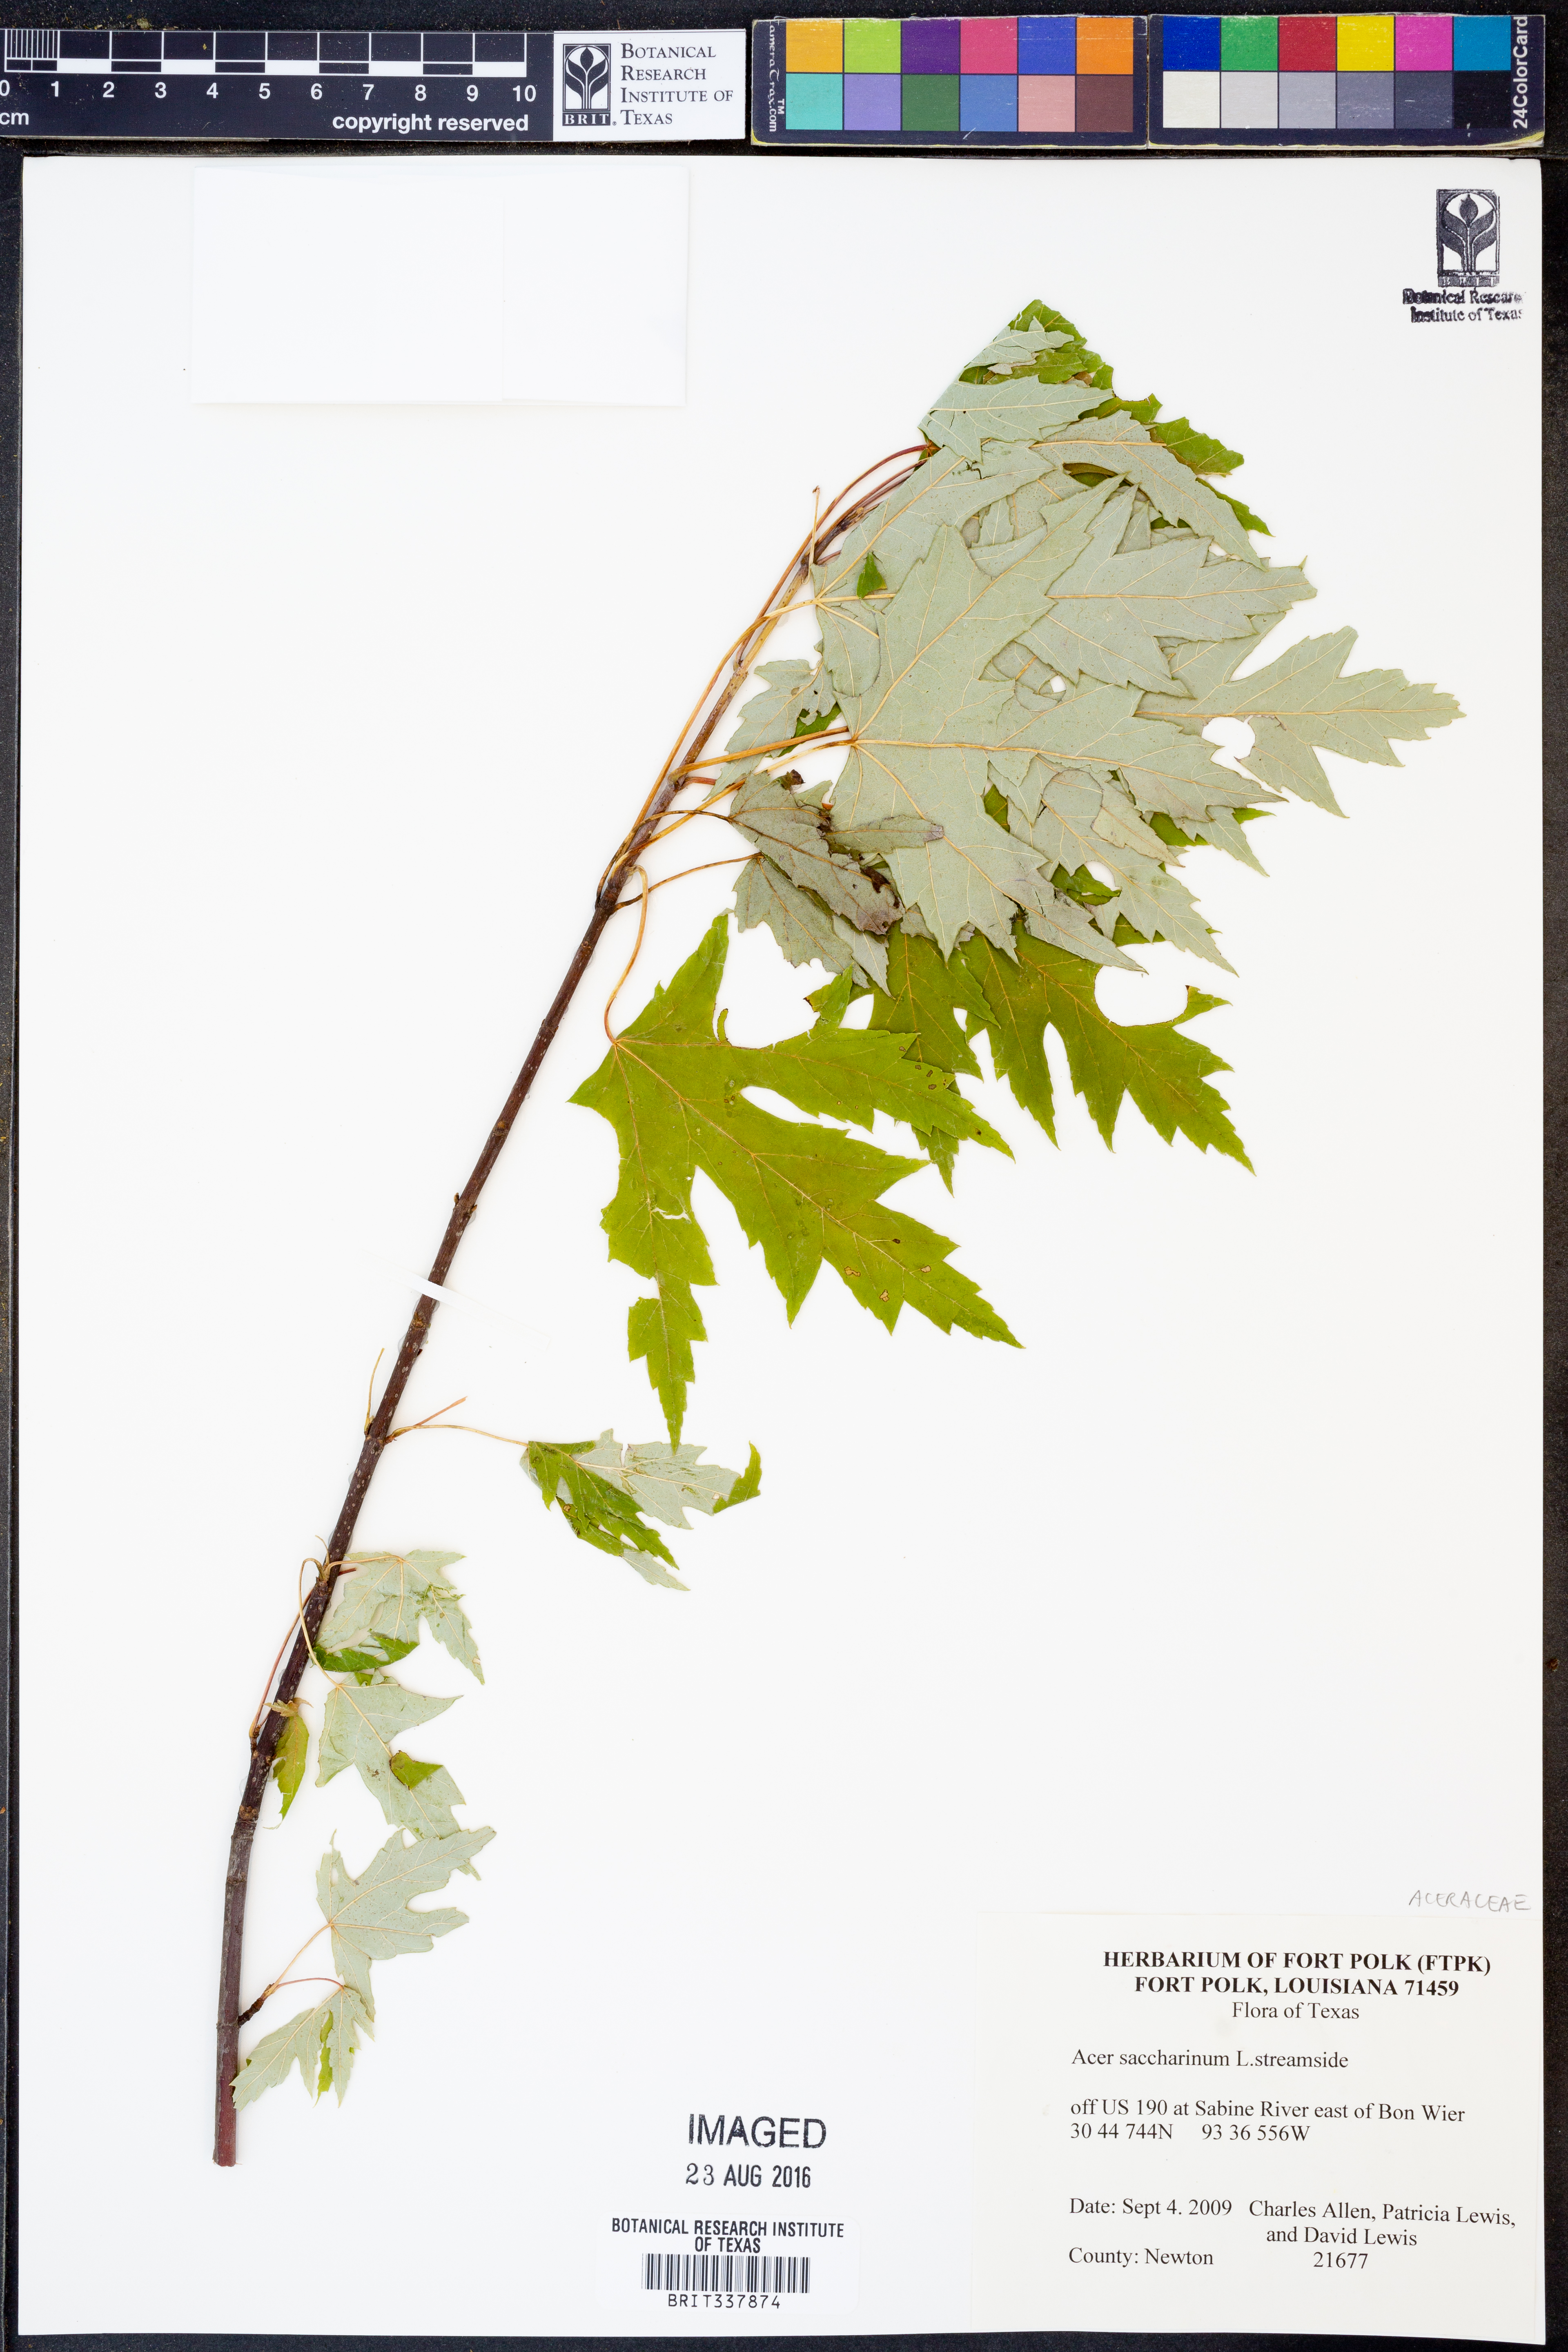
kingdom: Plantae
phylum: Tracheophyta
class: Magnoliopsida
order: Sapindales
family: Sapindaceae
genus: Acer
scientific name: Acer saccharinum
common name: Silver maple
